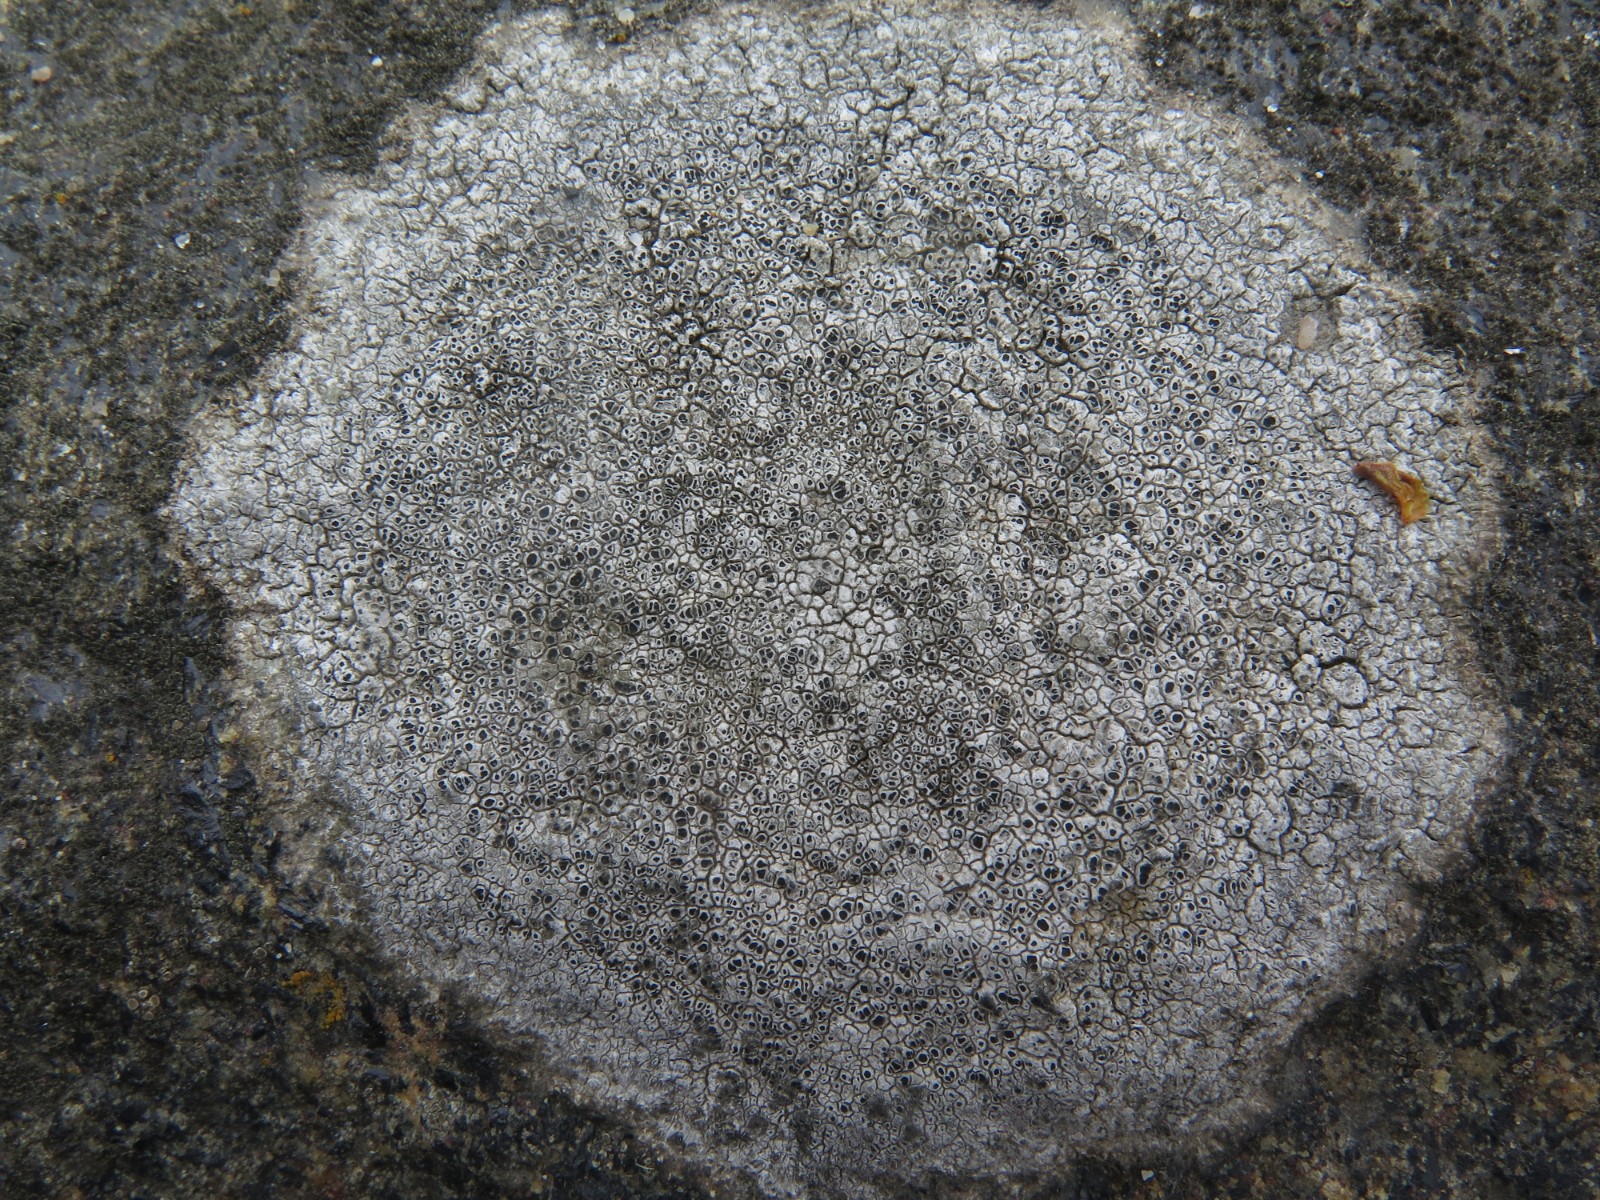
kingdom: Fungi
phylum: Ascomycota
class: Lecanoromycetes
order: Pertusariales
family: Megasporaceae
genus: Circinaria
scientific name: Circinaria caesiocinerea
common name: fuglestens-hulskivelav
